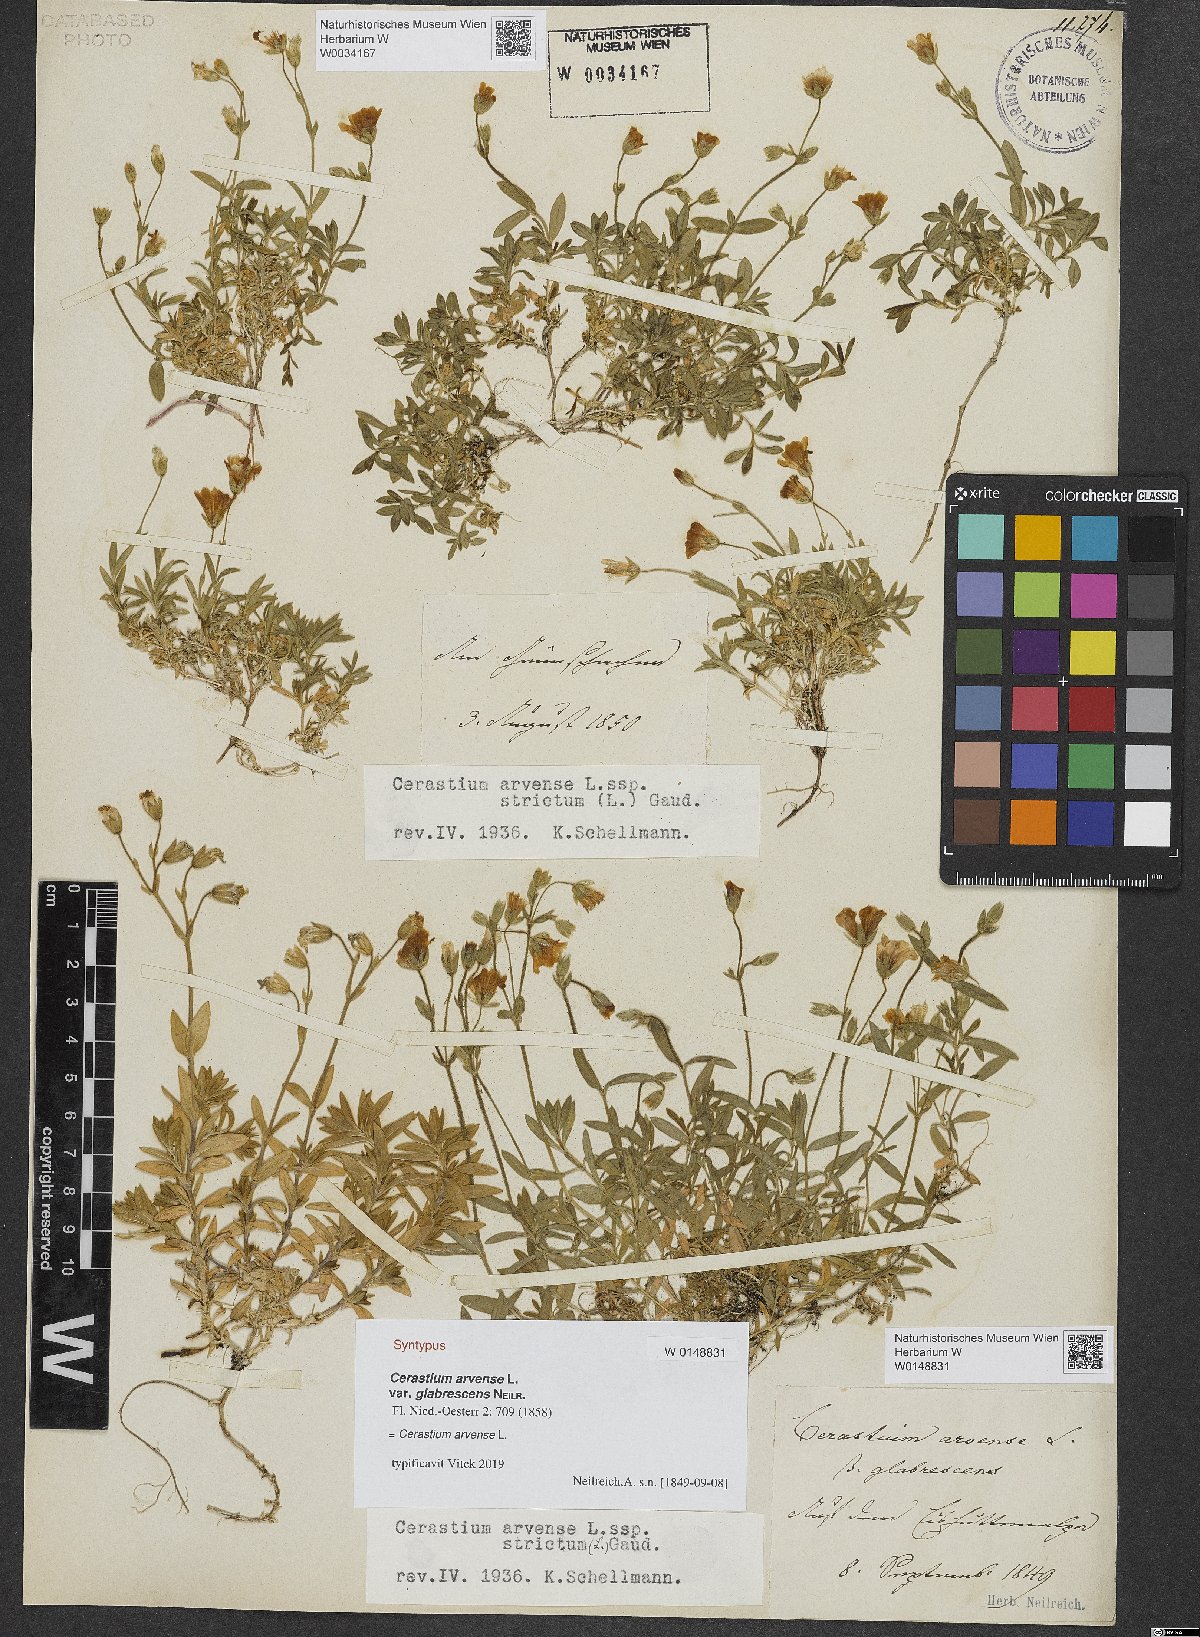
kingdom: Plantae
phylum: Tracheophyta
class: Magnoliopsida
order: Caryophyllales
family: Caryophyllaceae
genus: Cerastium
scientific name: Cerastium
